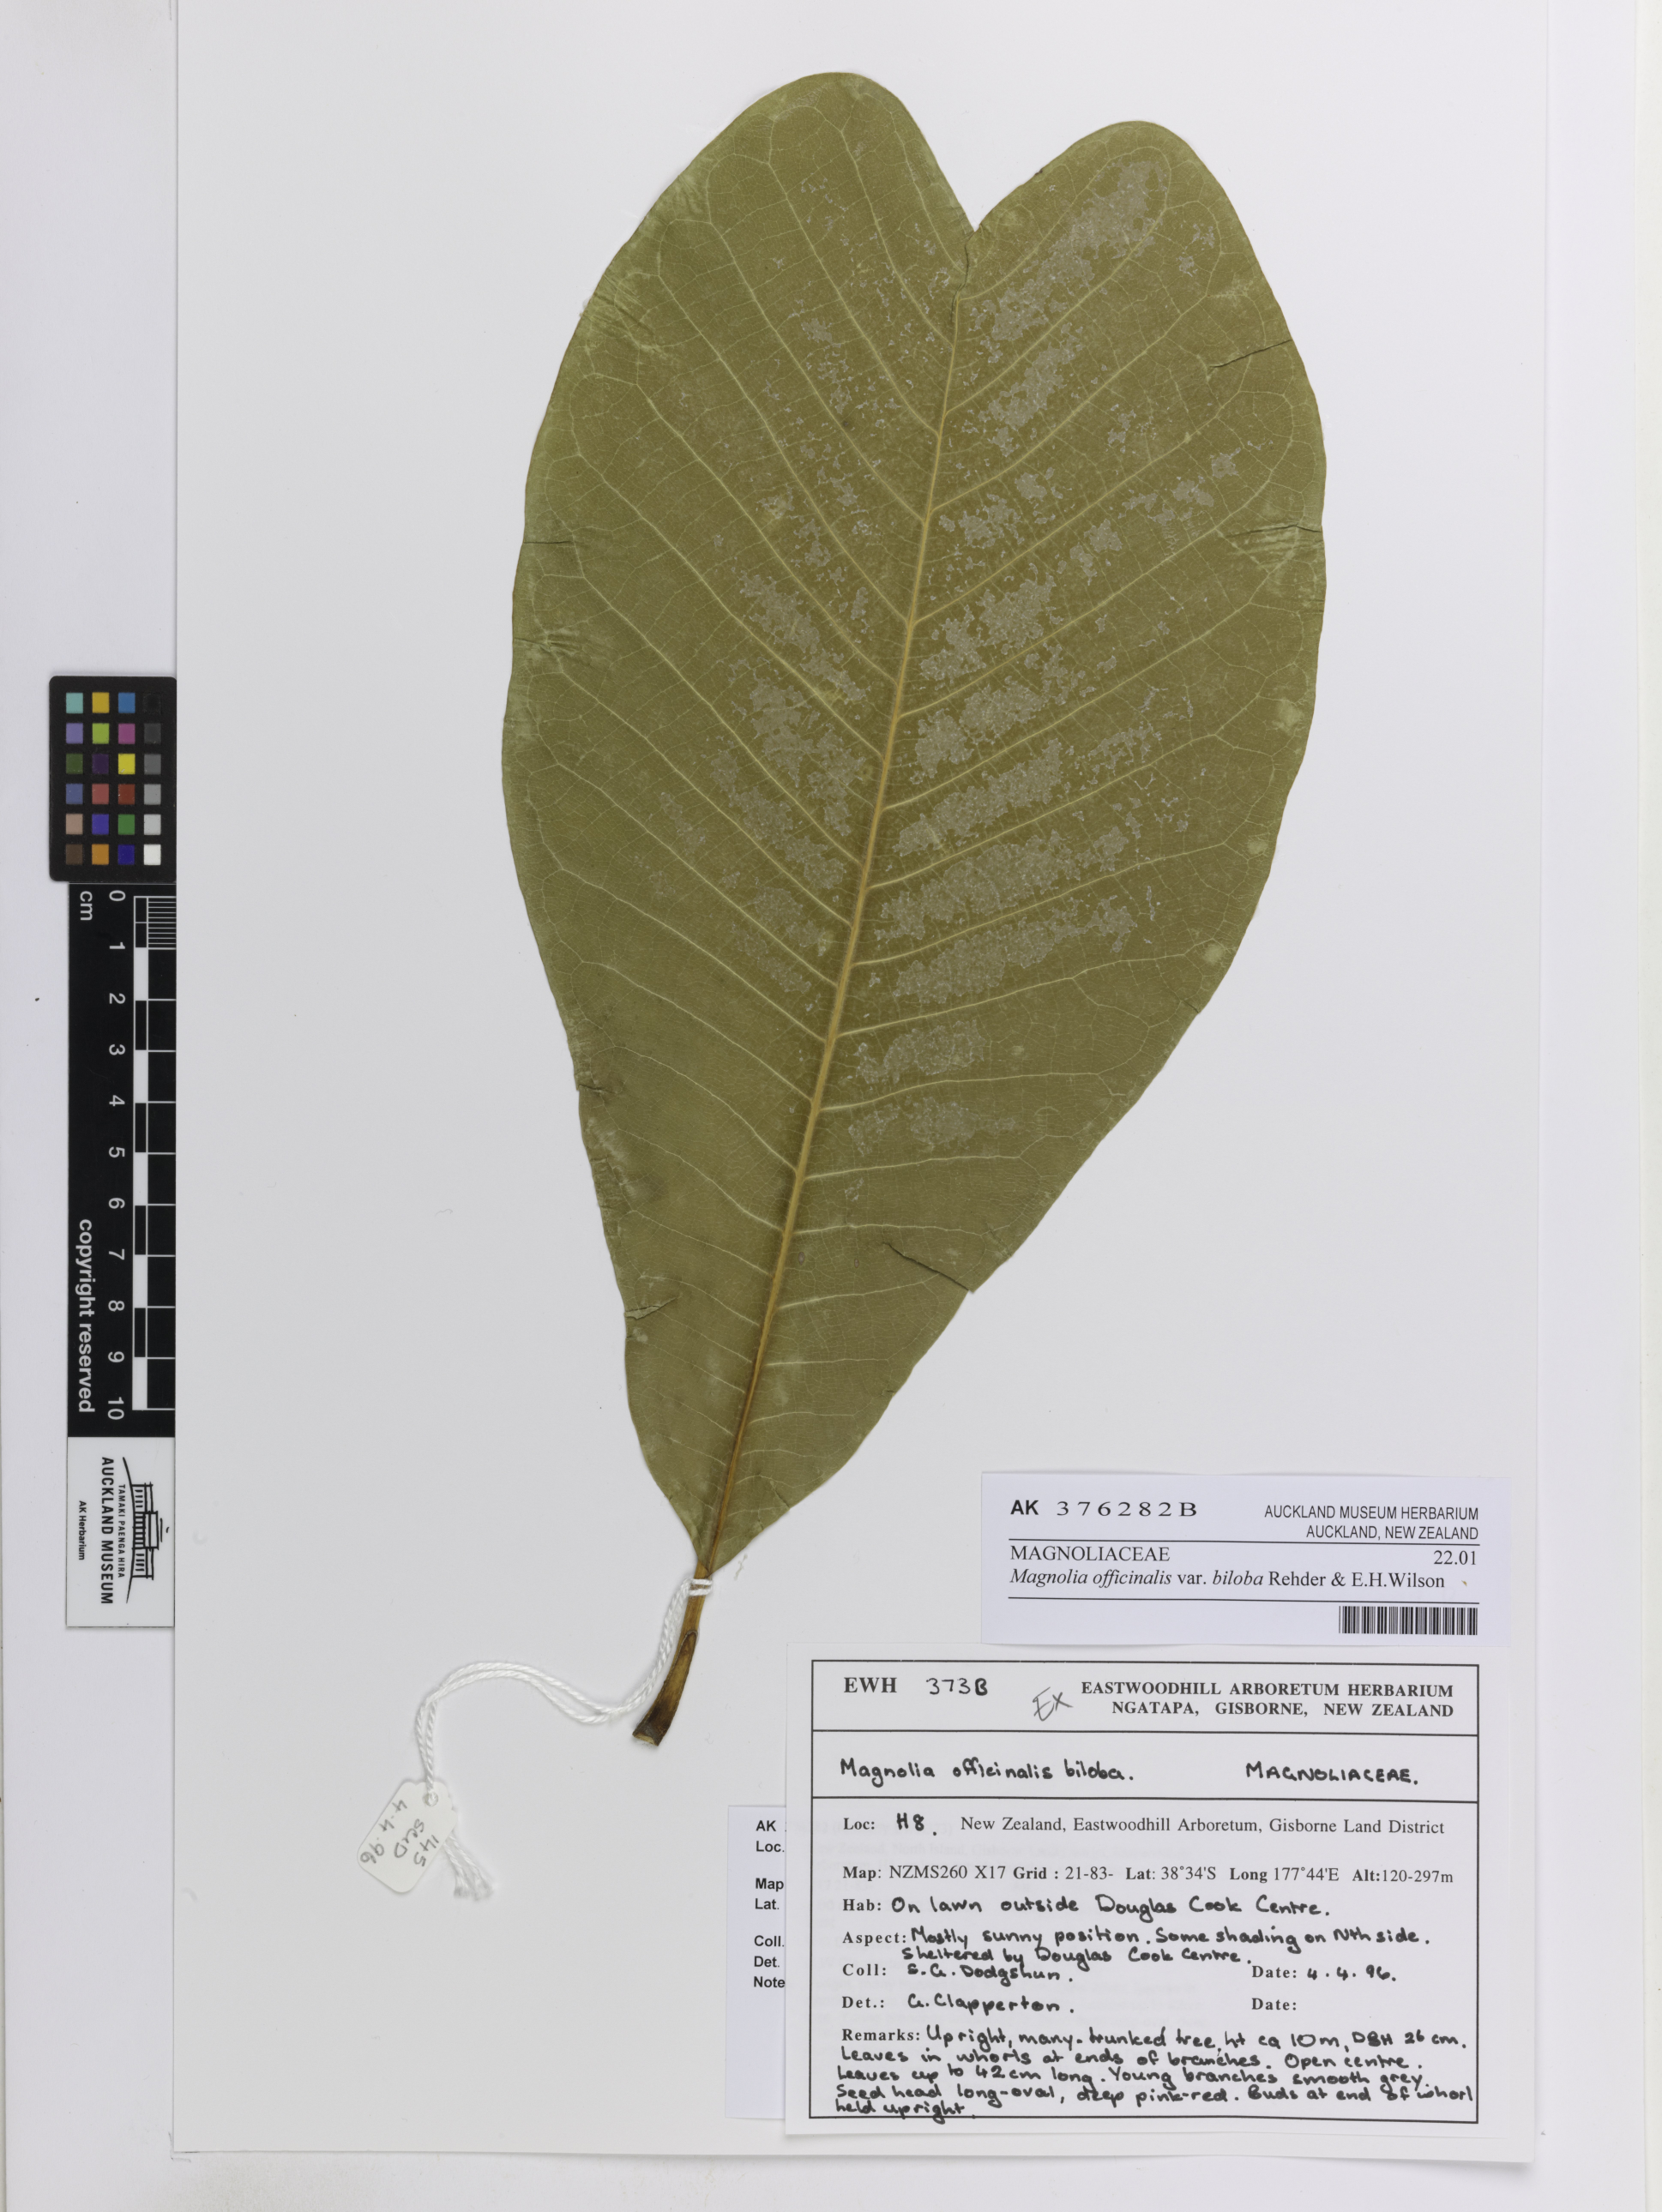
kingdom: Plantae
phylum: Tracheophyta
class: Magnoliopsida
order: Magnoliales
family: Magnoliaceae
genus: Magnolia
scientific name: Magnolia officinalis
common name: Magnolia-bark
